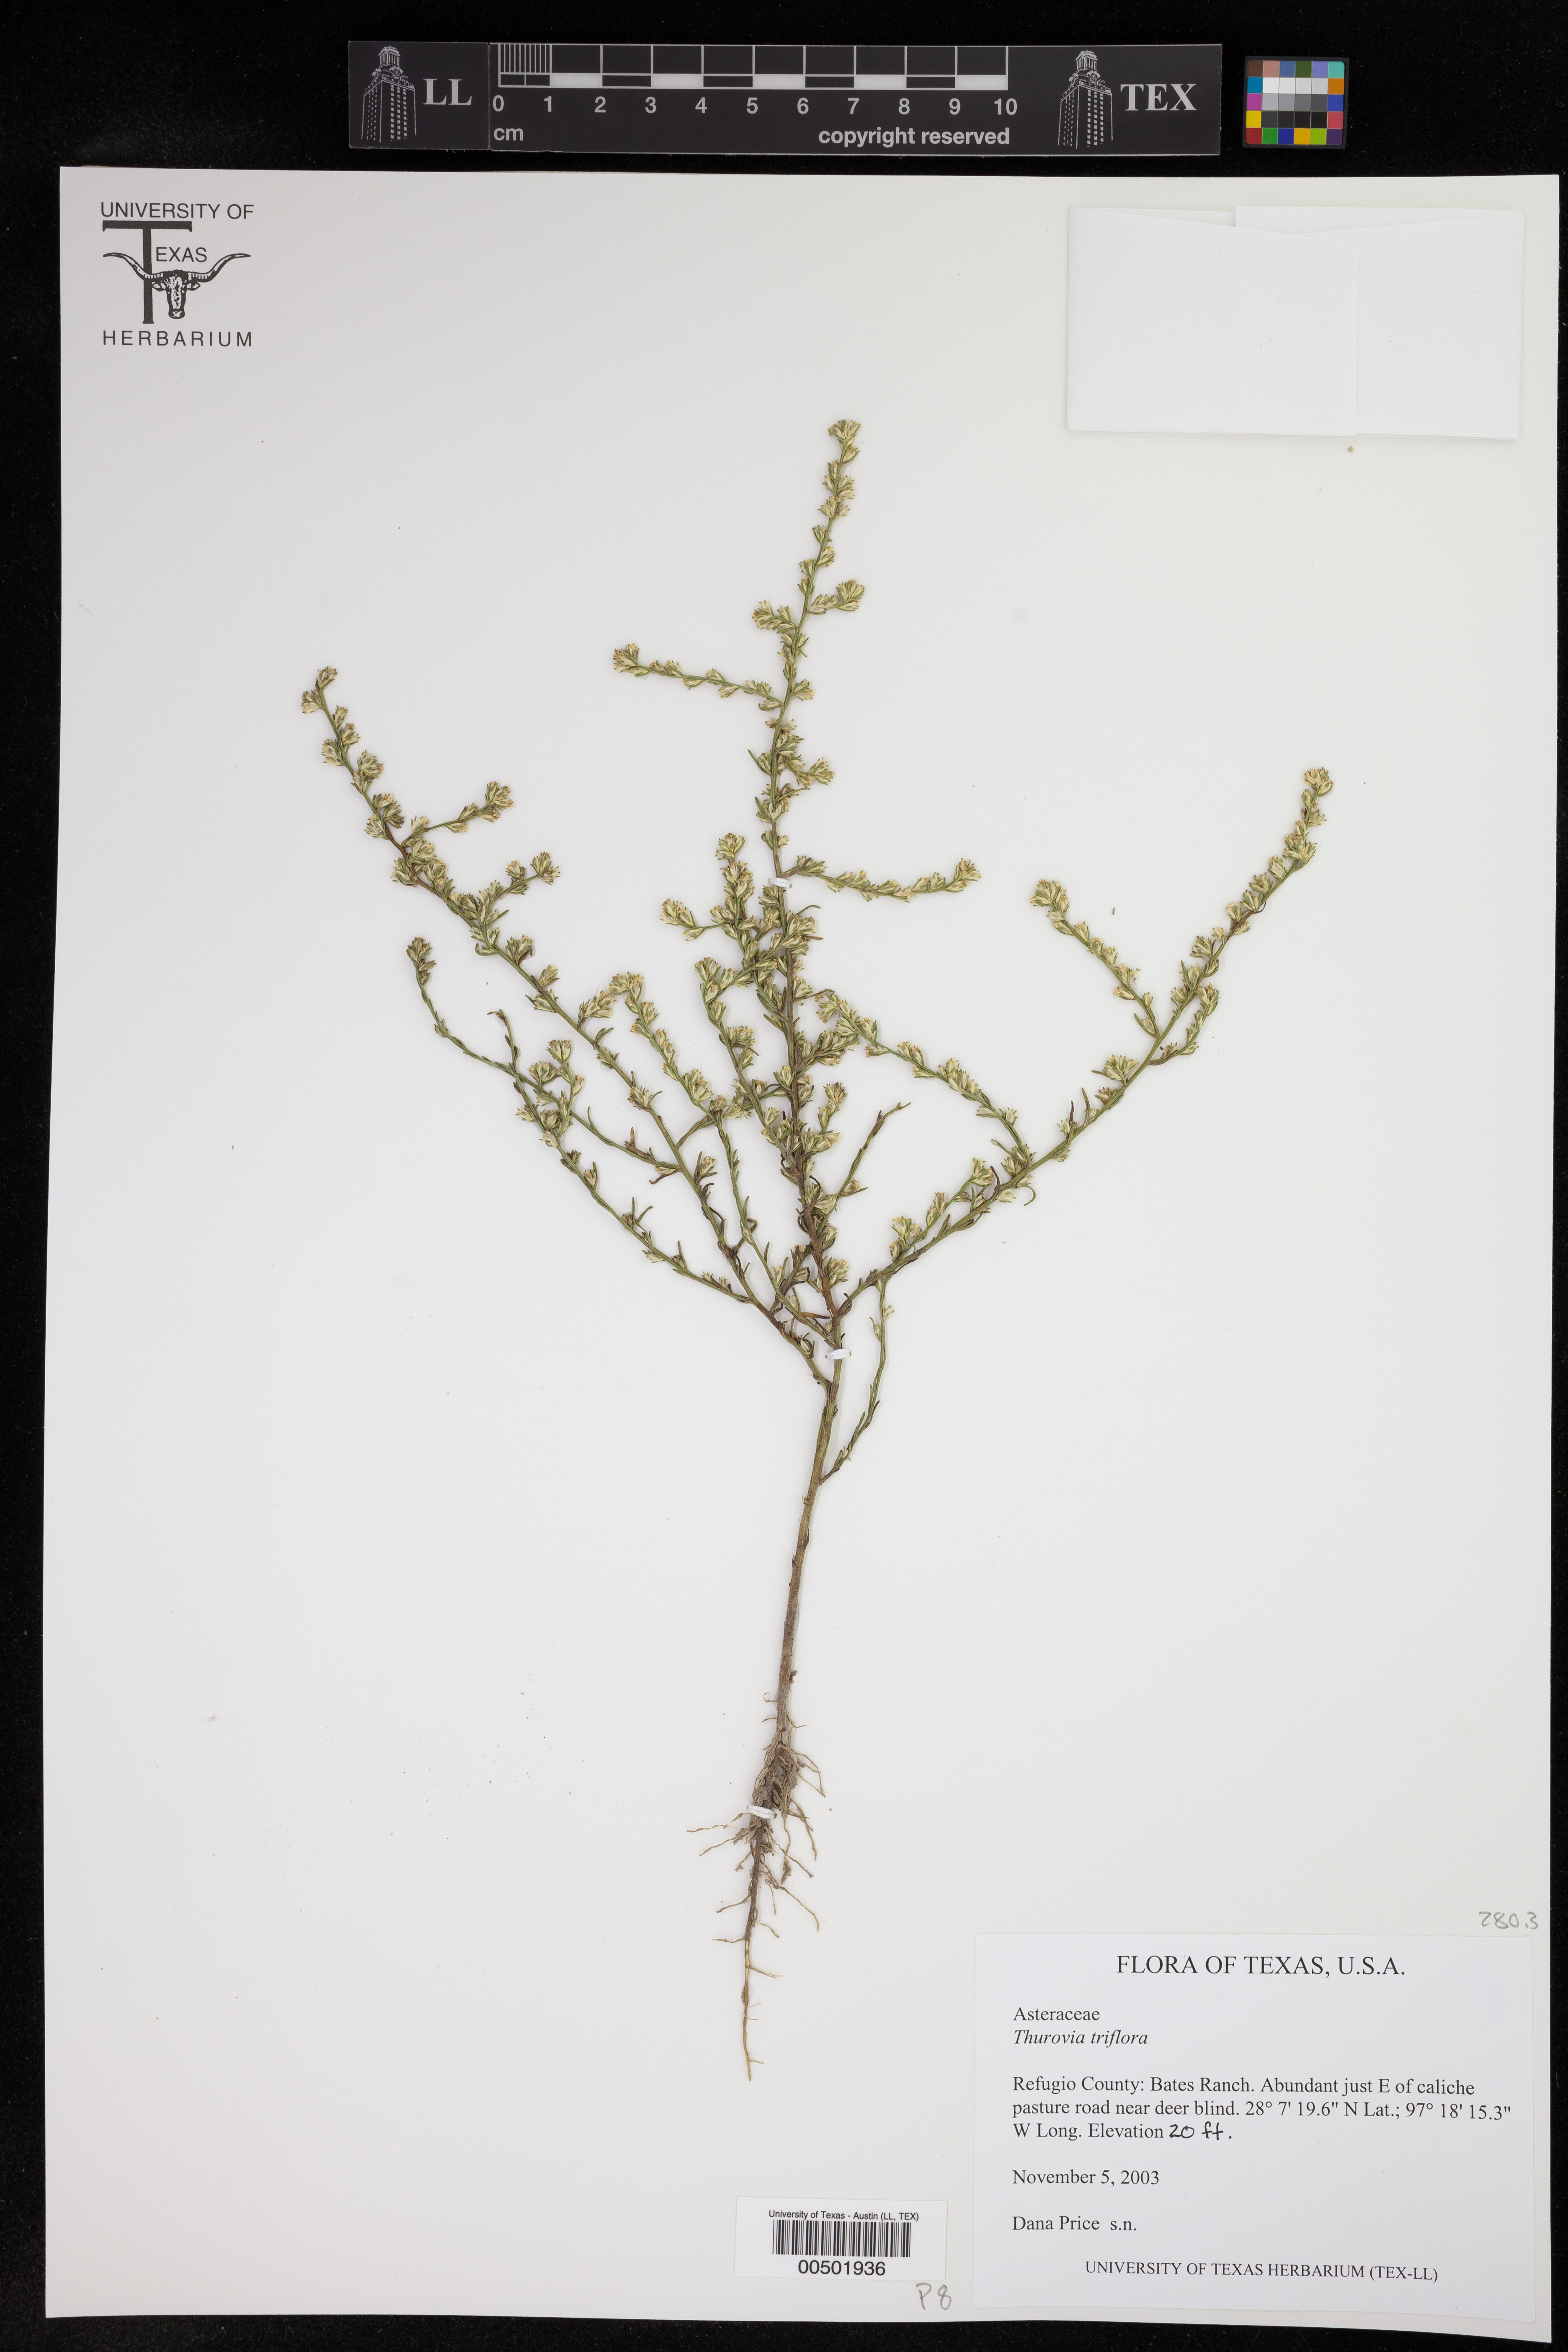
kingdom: Plantae
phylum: Tracheophyta
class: Magnoliopsida
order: Asterales
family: Asteraceae
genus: Thurovia
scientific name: Thurovia triflora
